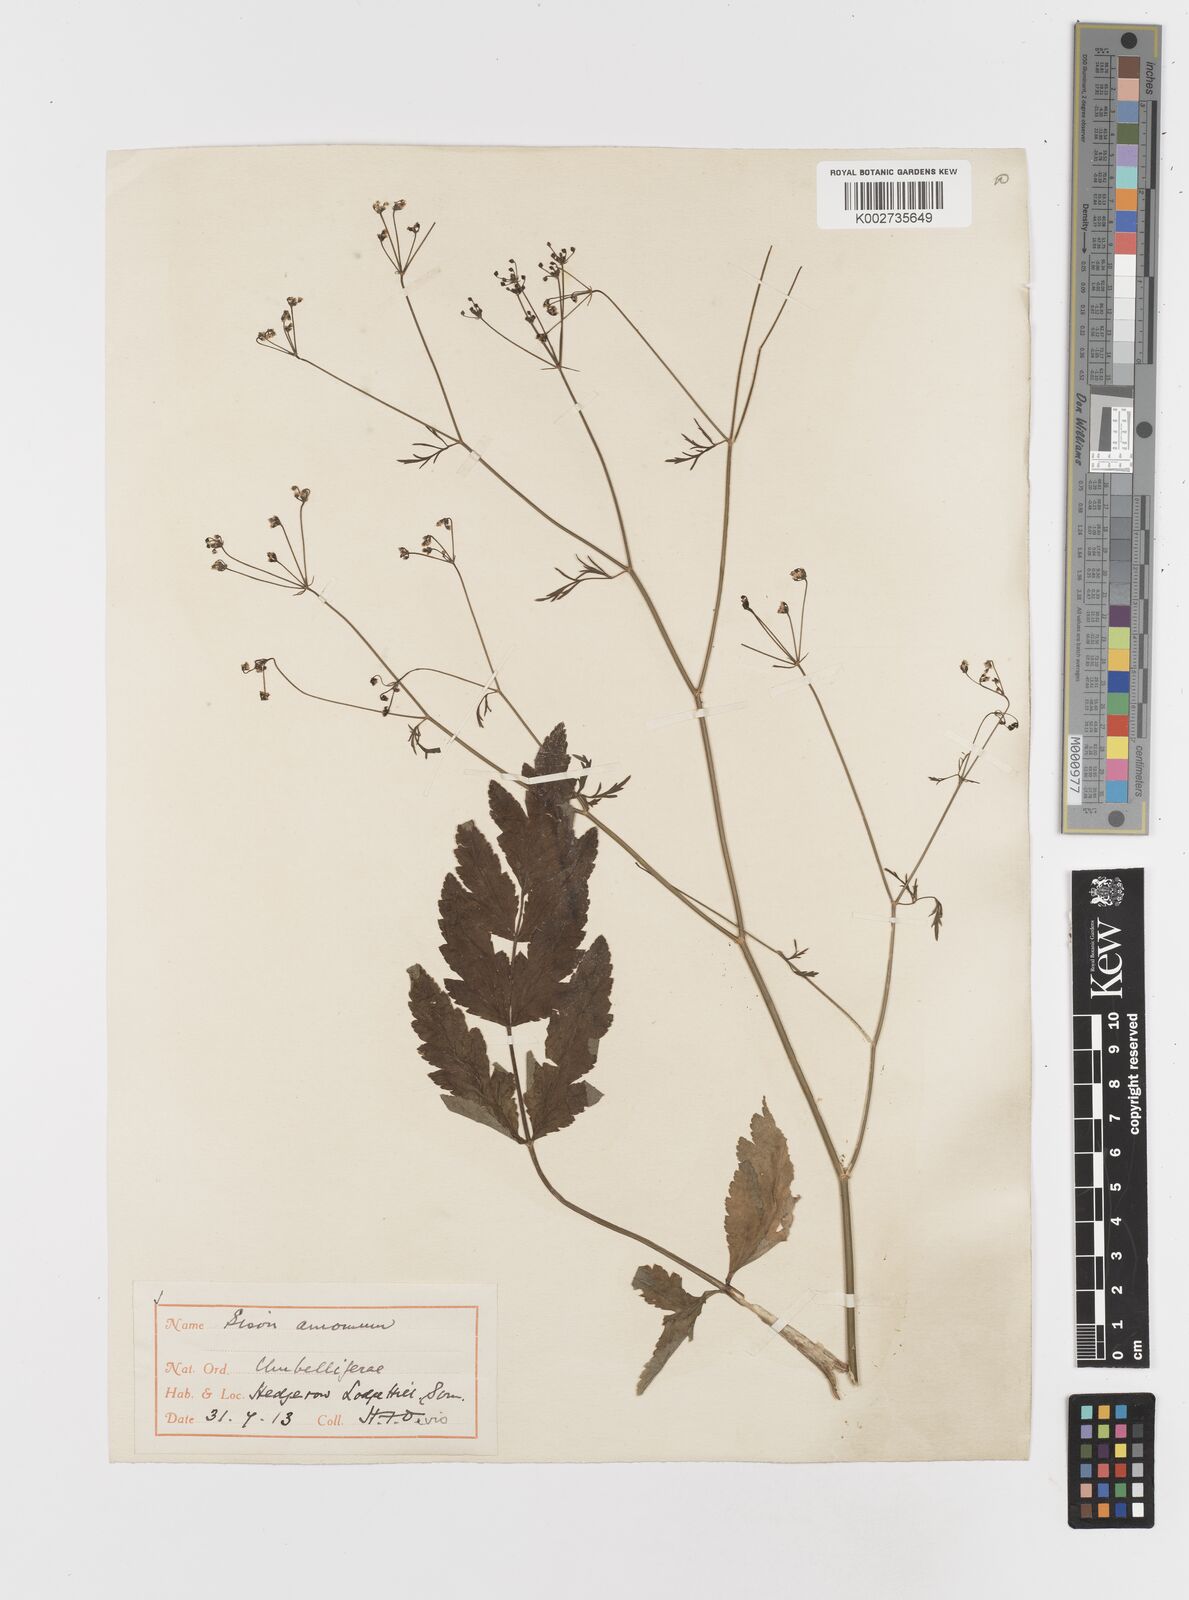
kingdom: Plantae
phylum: Tracheophyta
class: Magnoliopsida
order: Apiales
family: Apiaceae
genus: Sison
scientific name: Sison amomum
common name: Stone-parsley
